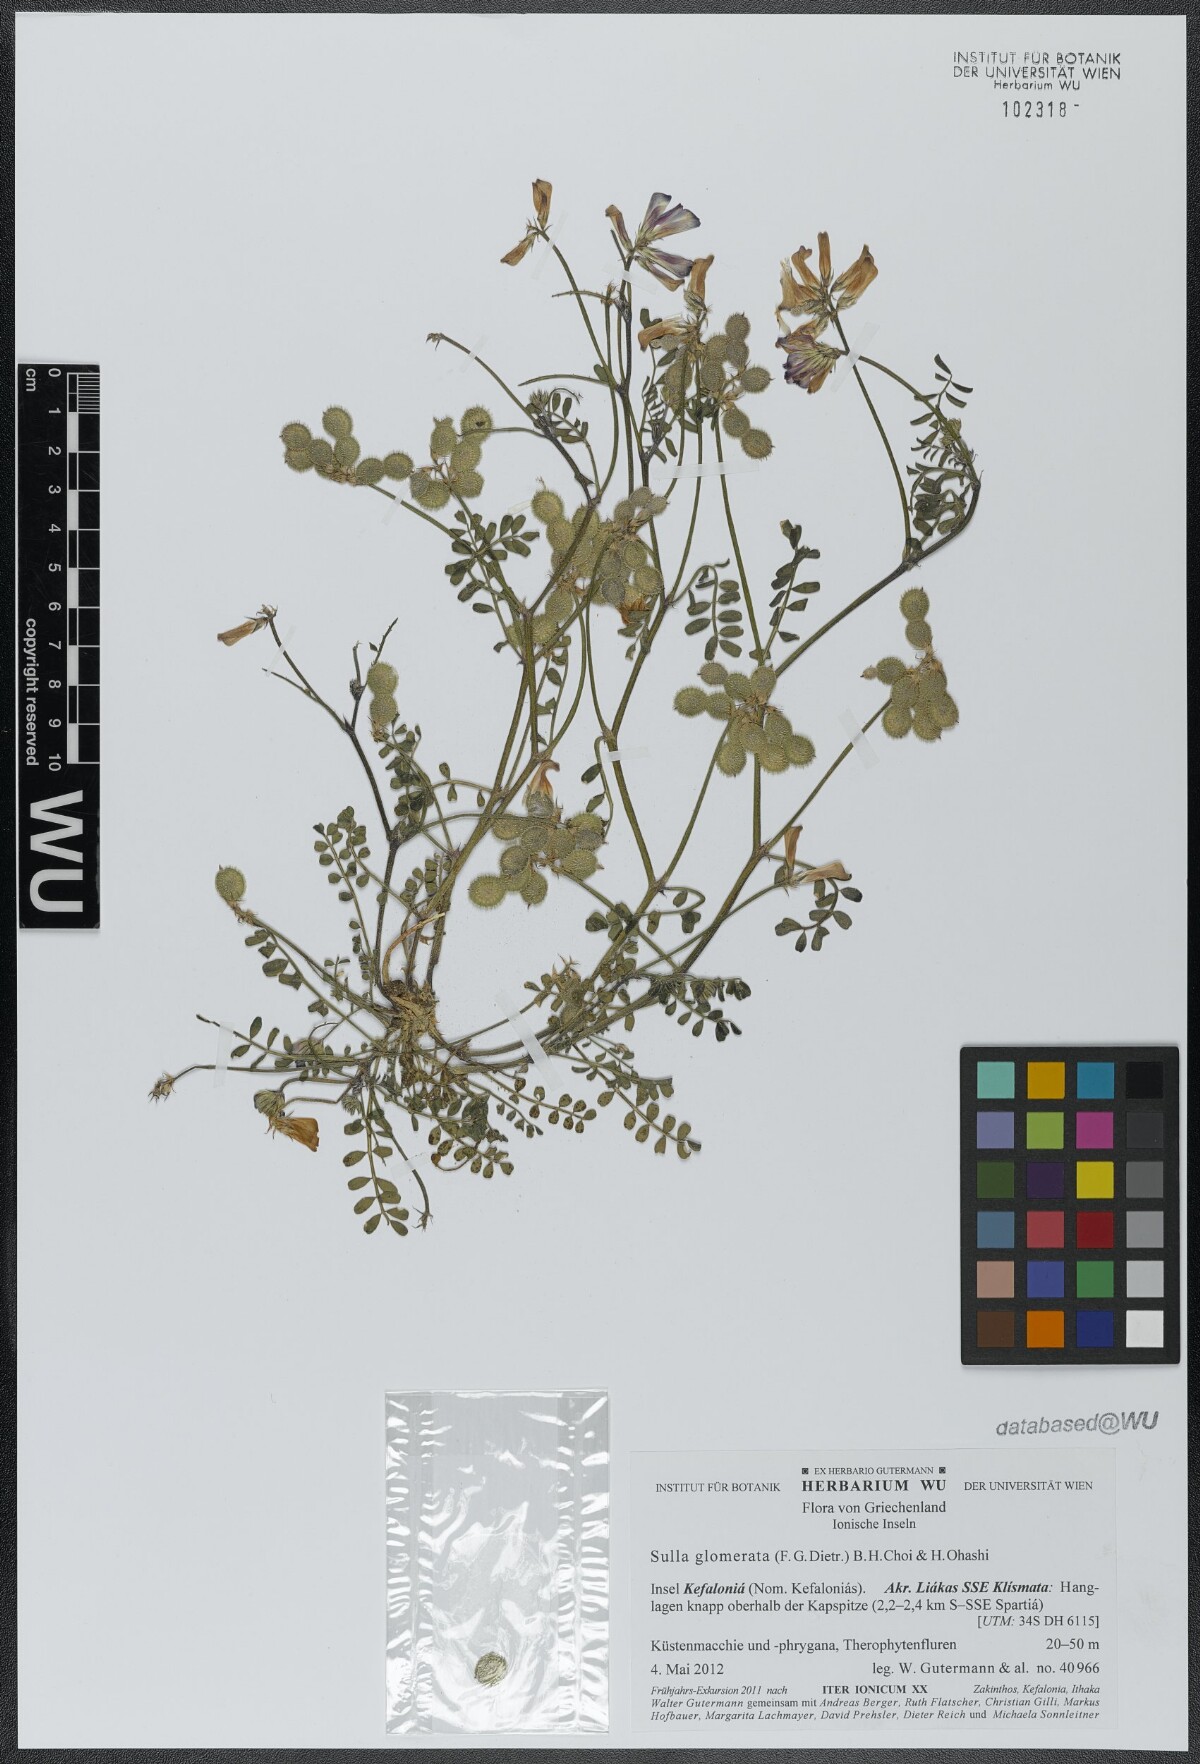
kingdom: Plantae
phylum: Tracheophyta
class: Magnoliopsida
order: Fabales
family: Fabaceae
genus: Sulla
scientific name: Sulla glomerata
